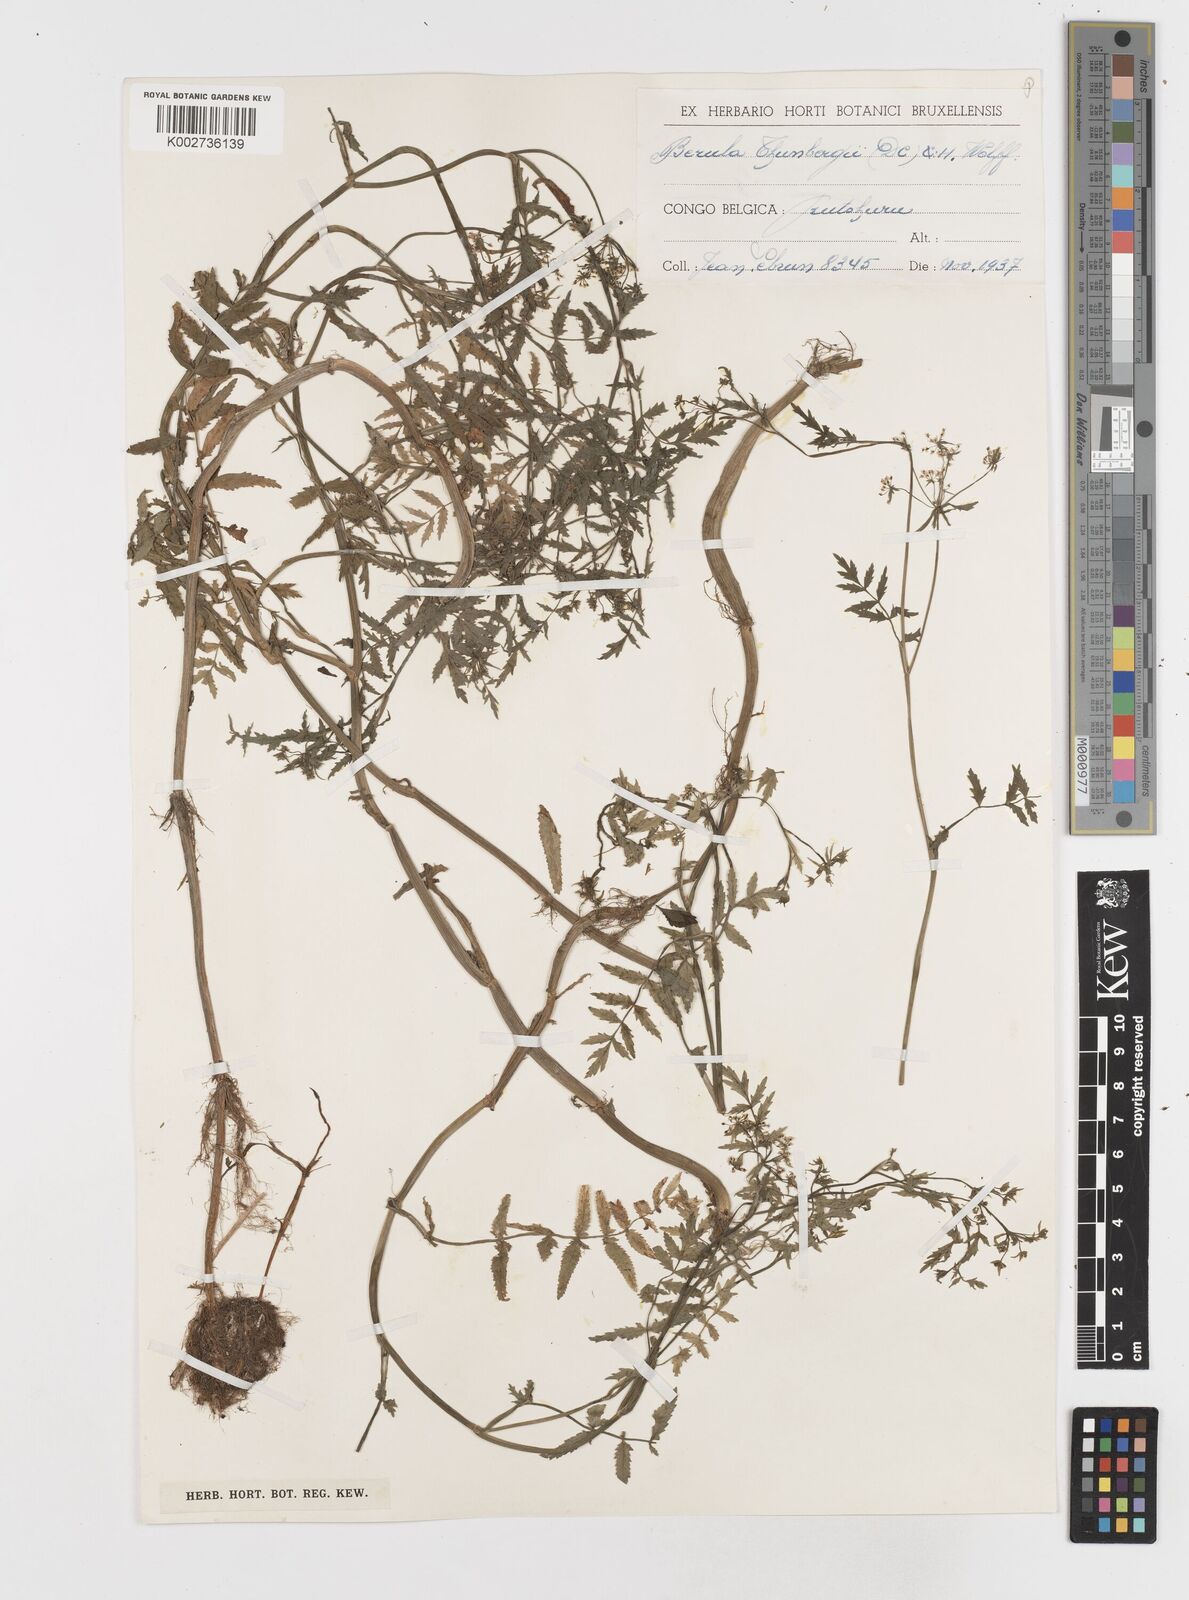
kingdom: Plantae
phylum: Tracheophyta
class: Magnoliopsida
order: Apiales
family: Apiaceae
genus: Berula
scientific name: Berula erecta
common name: Lesser water-parsnip
